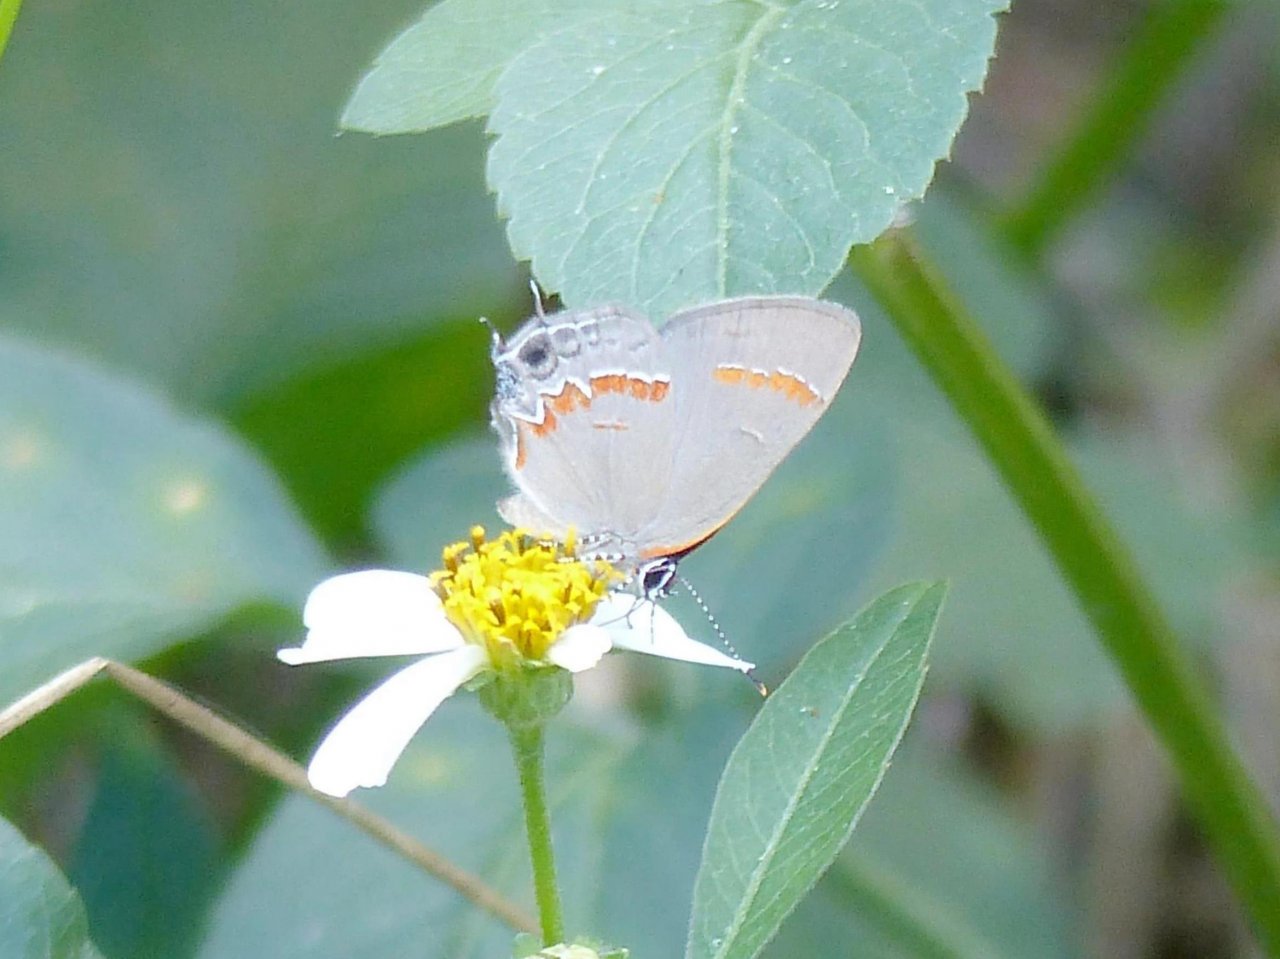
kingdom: Animalia
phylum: Arthropoda
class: Insecta
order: Lepidoptera
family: Lycaenidae
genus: Calycopis
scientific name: Calycopis cecrops
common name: Red-banded Hairstreak
